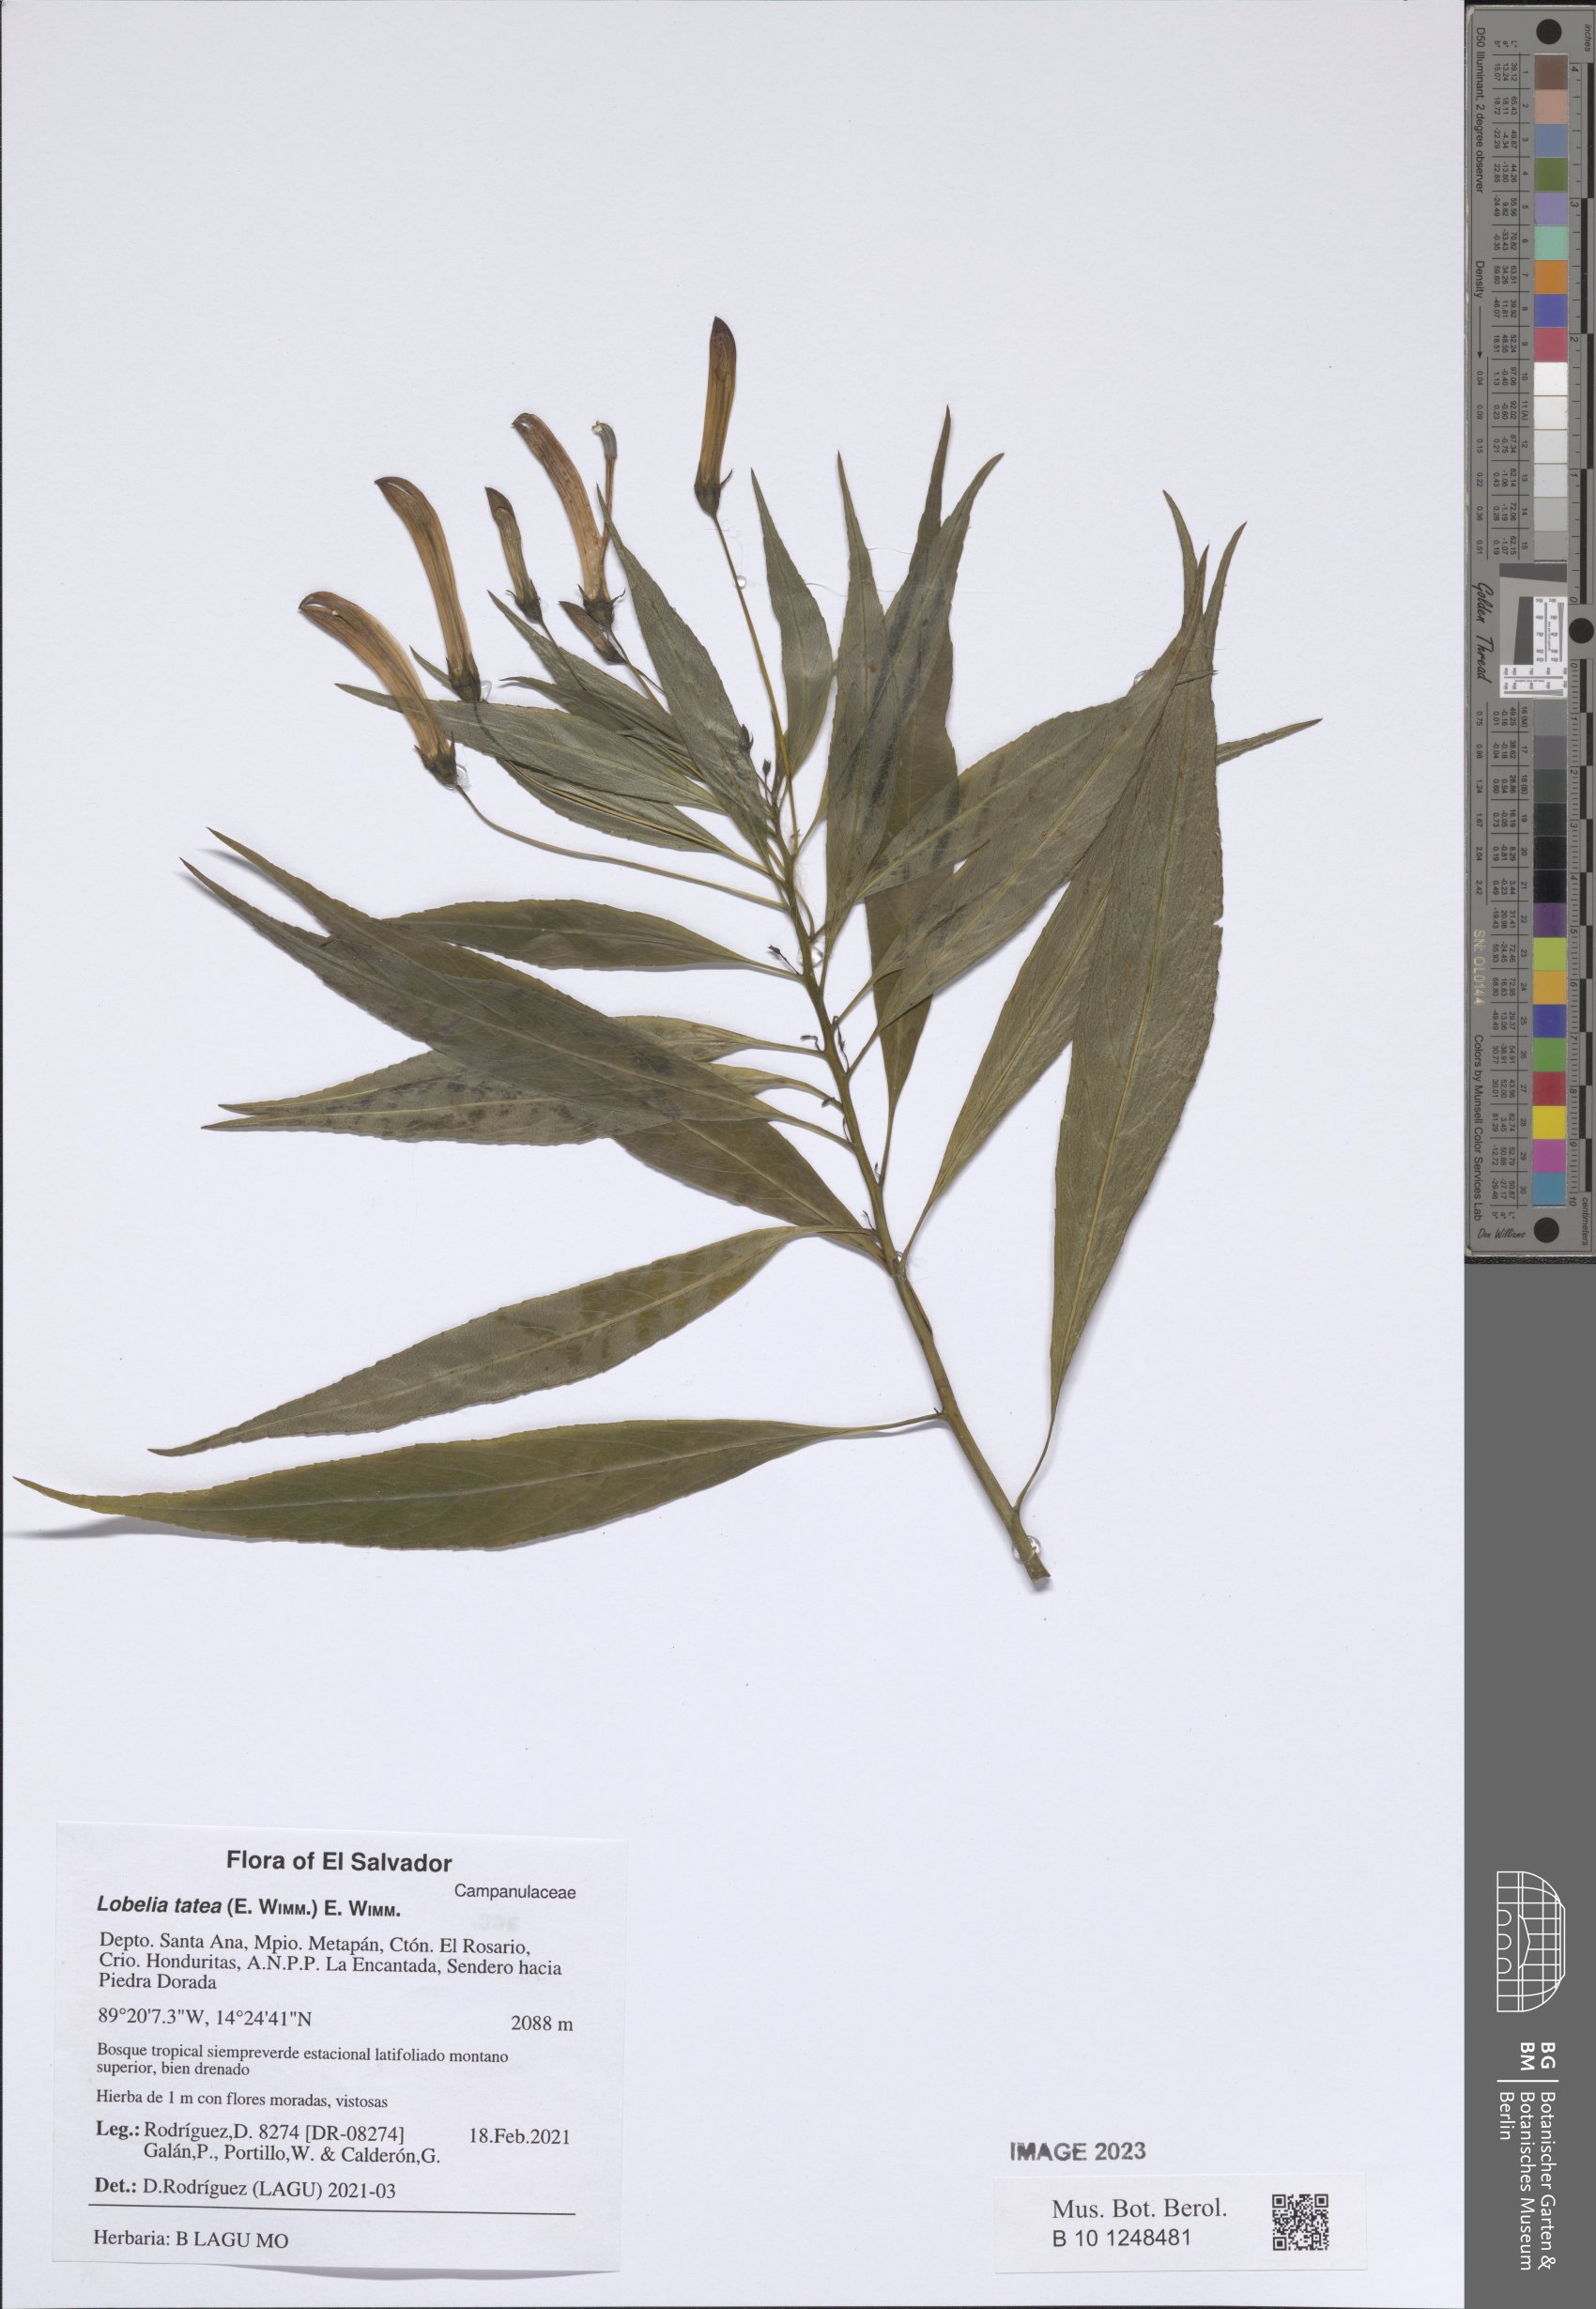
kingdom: Plantae
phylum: Tracheophyta
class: Magnoliopsida
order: Asterales
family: Campanulaceae
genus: Lobelia
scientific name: Lobelia tatea
